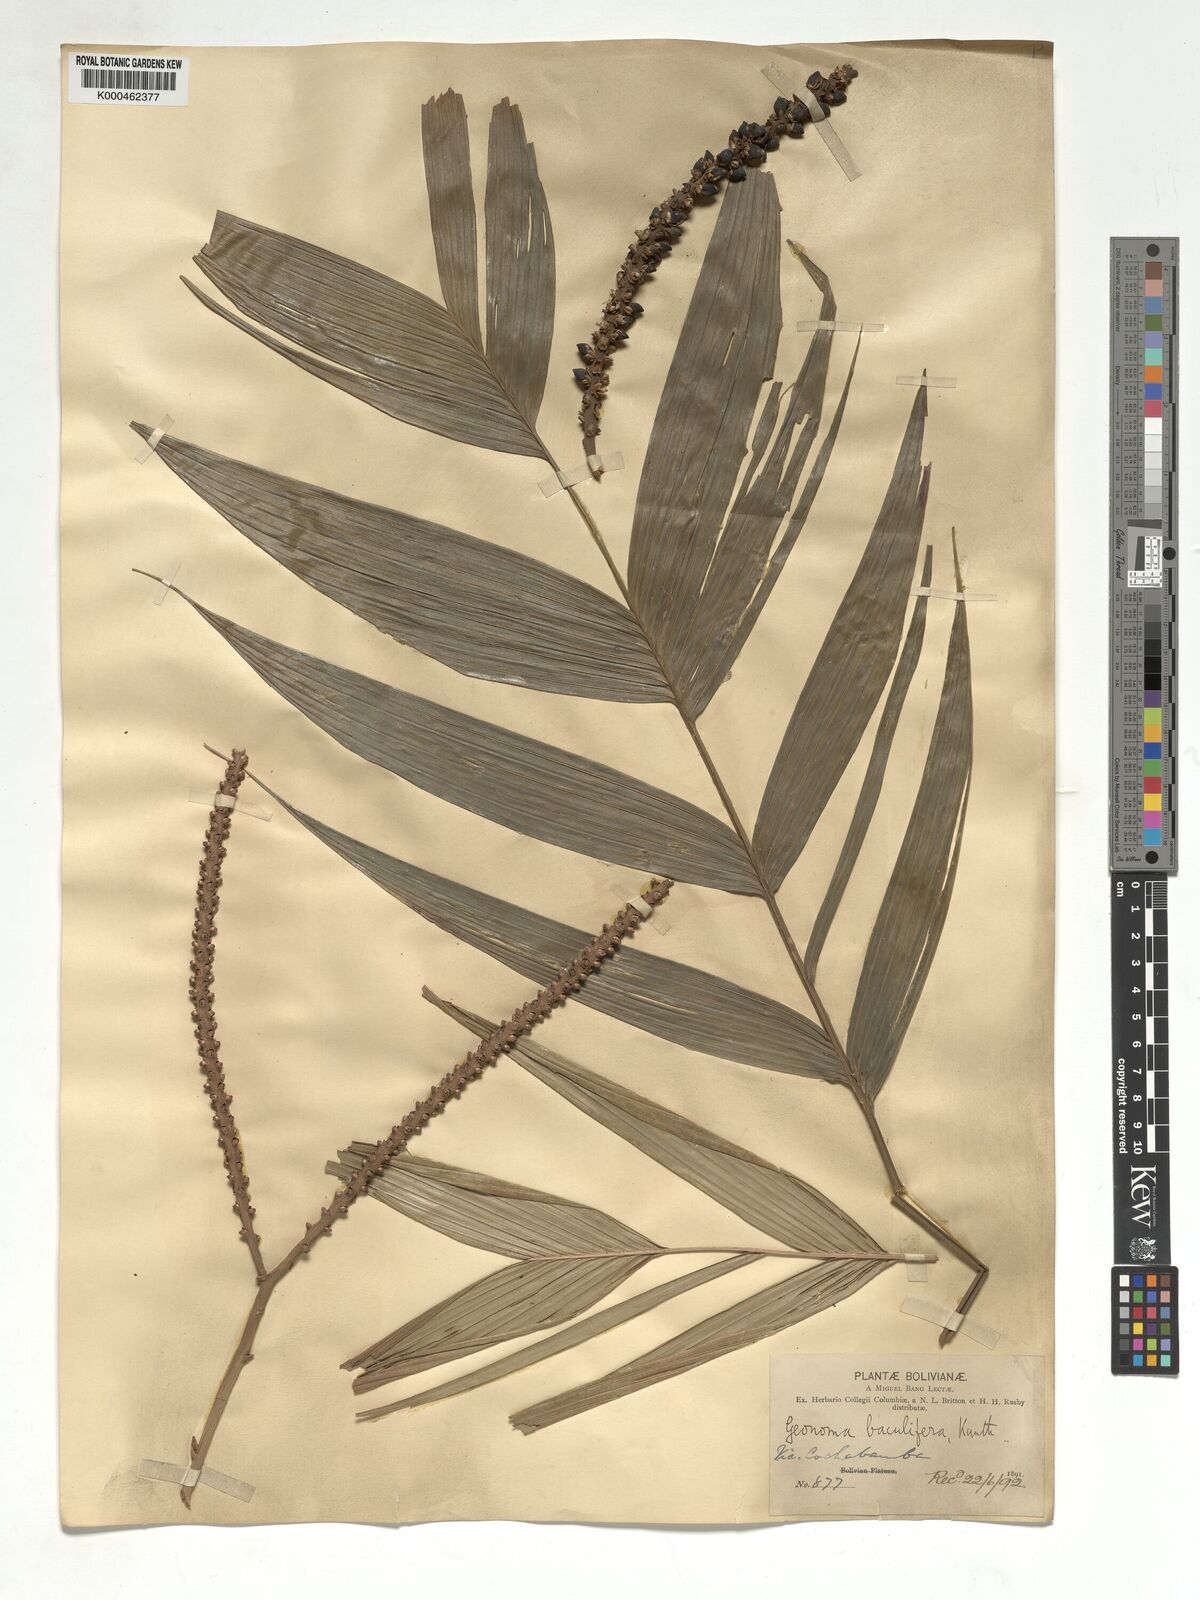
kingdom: Plantae
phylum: Tracheophyta
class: Liliopsida
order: Arecales
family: Arecaceae
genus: Geonoma
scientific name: Geonoma baculifera
